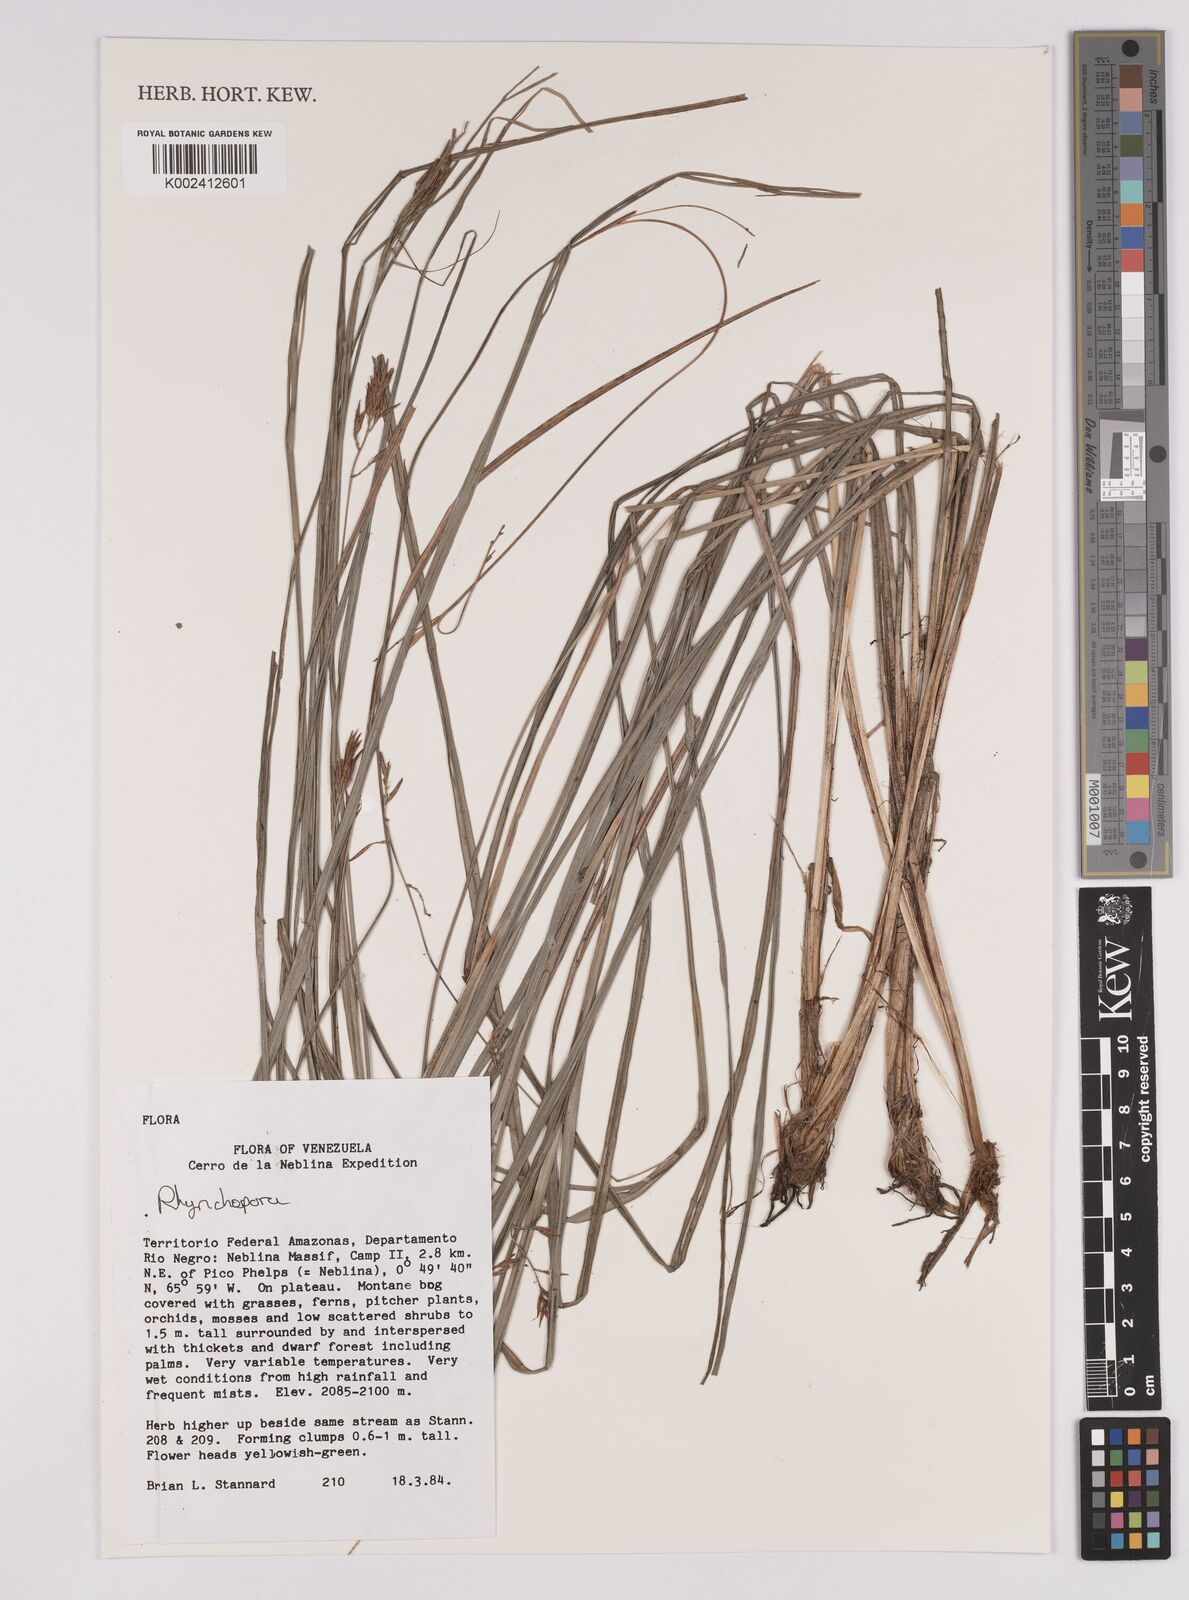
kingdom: Plantae
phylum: Tracheophyta
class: Liliopsida
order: Poales
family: Cyperaceae
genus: Rhynchospora
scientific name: Rhynchospora
